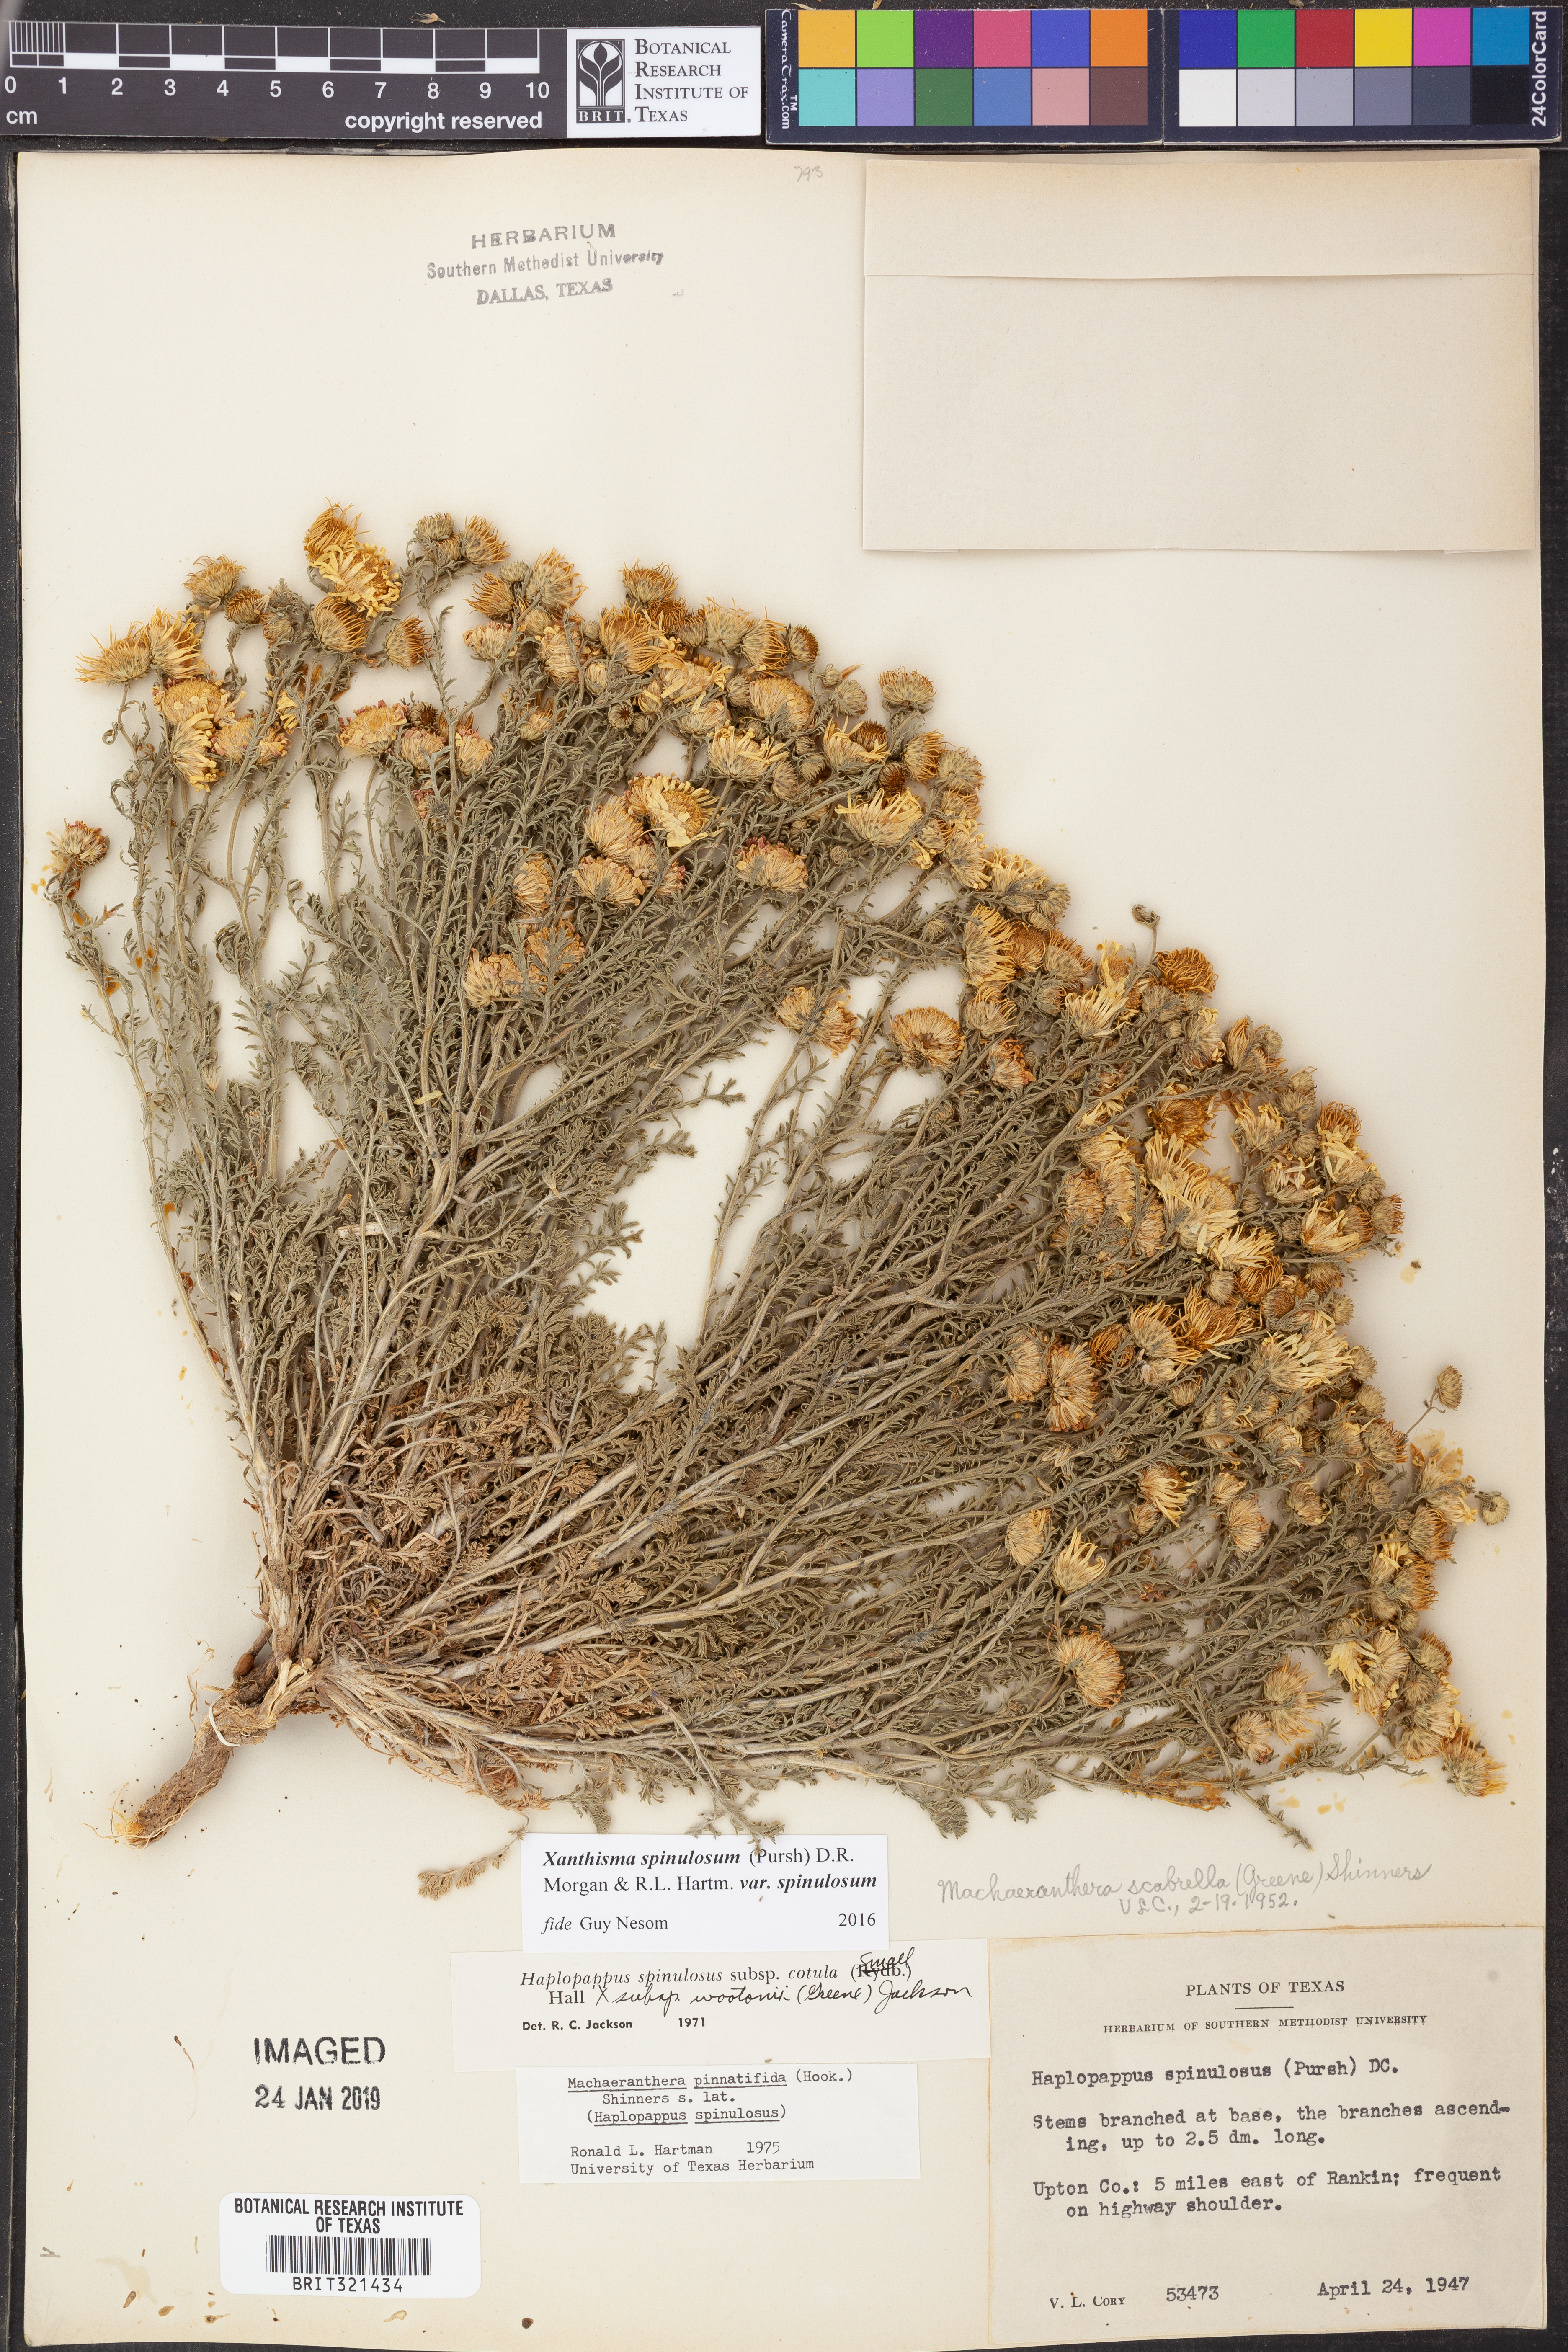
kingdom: Plantae
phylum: Tracheophyta
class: Magnoliopsida
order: Asterales
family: Asteraceae
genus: Xanthisma
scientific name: Xanthisma spinulosum
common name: Spiny goldenweed
